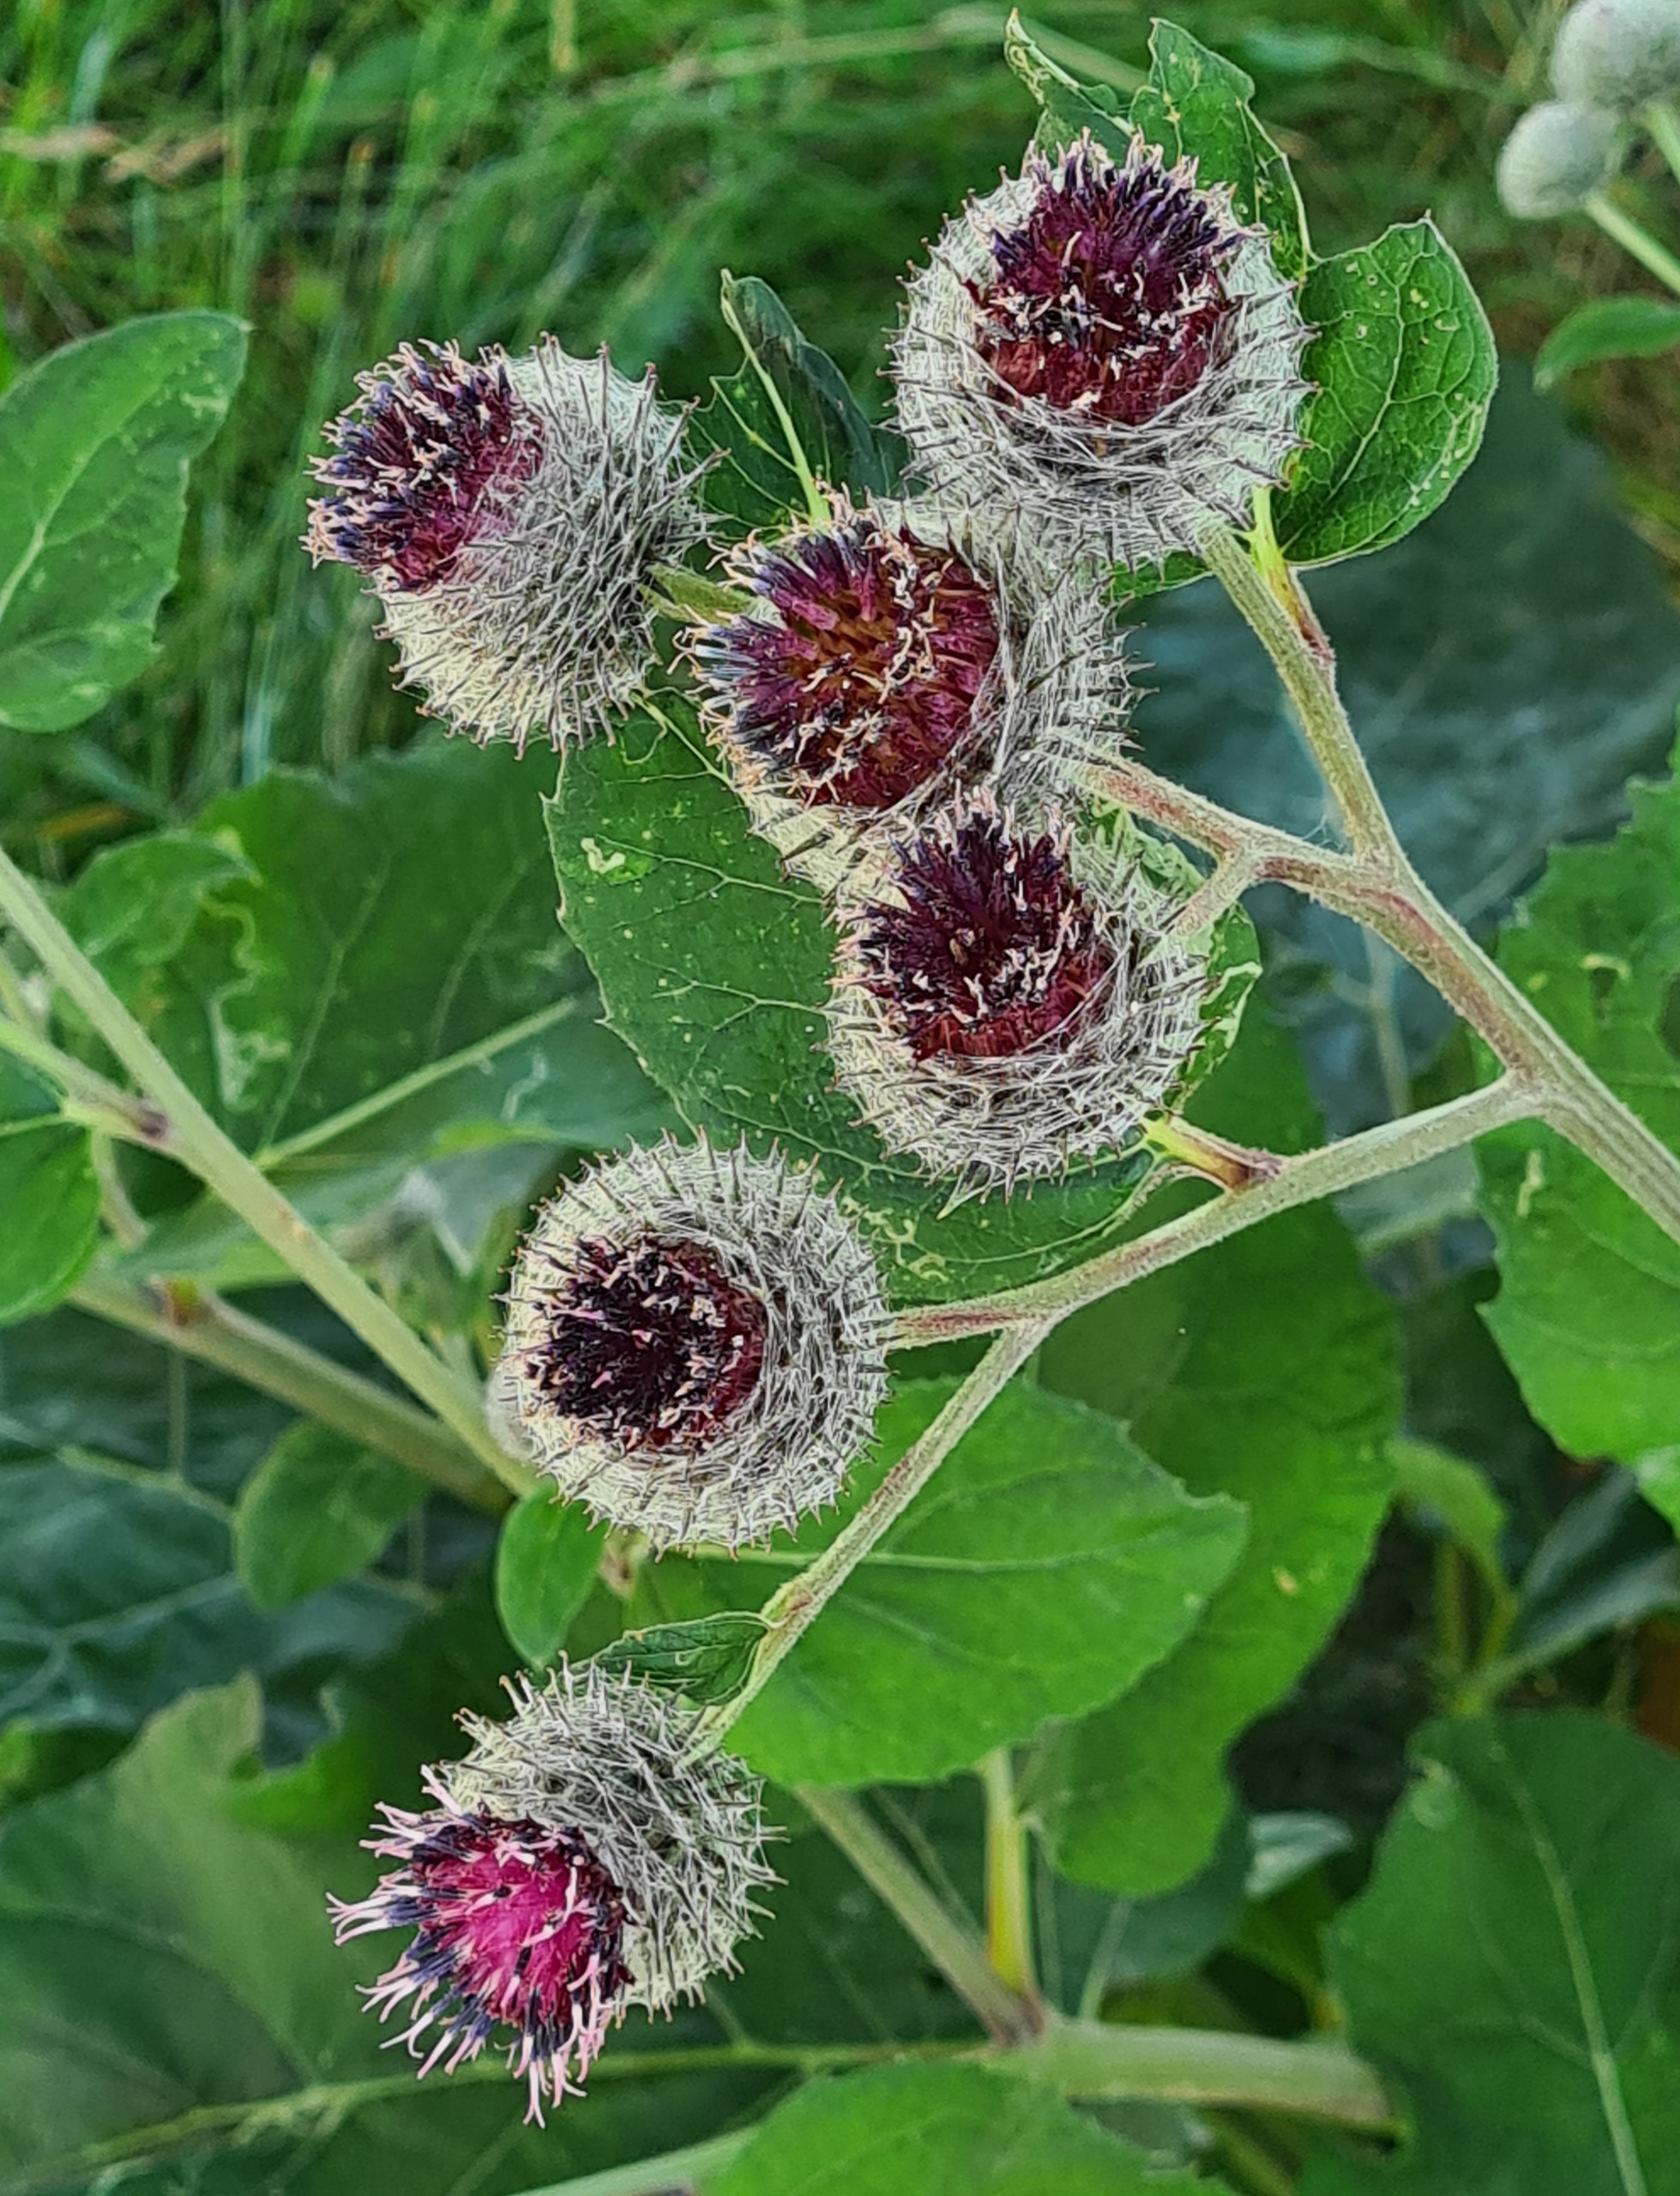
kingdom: Plantae
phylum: Tracheophyta
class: Magnoliopsida
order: Asterales
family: Asteraceae
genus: Arctium
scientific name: Arctium tomentosum
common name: Filtet burre
